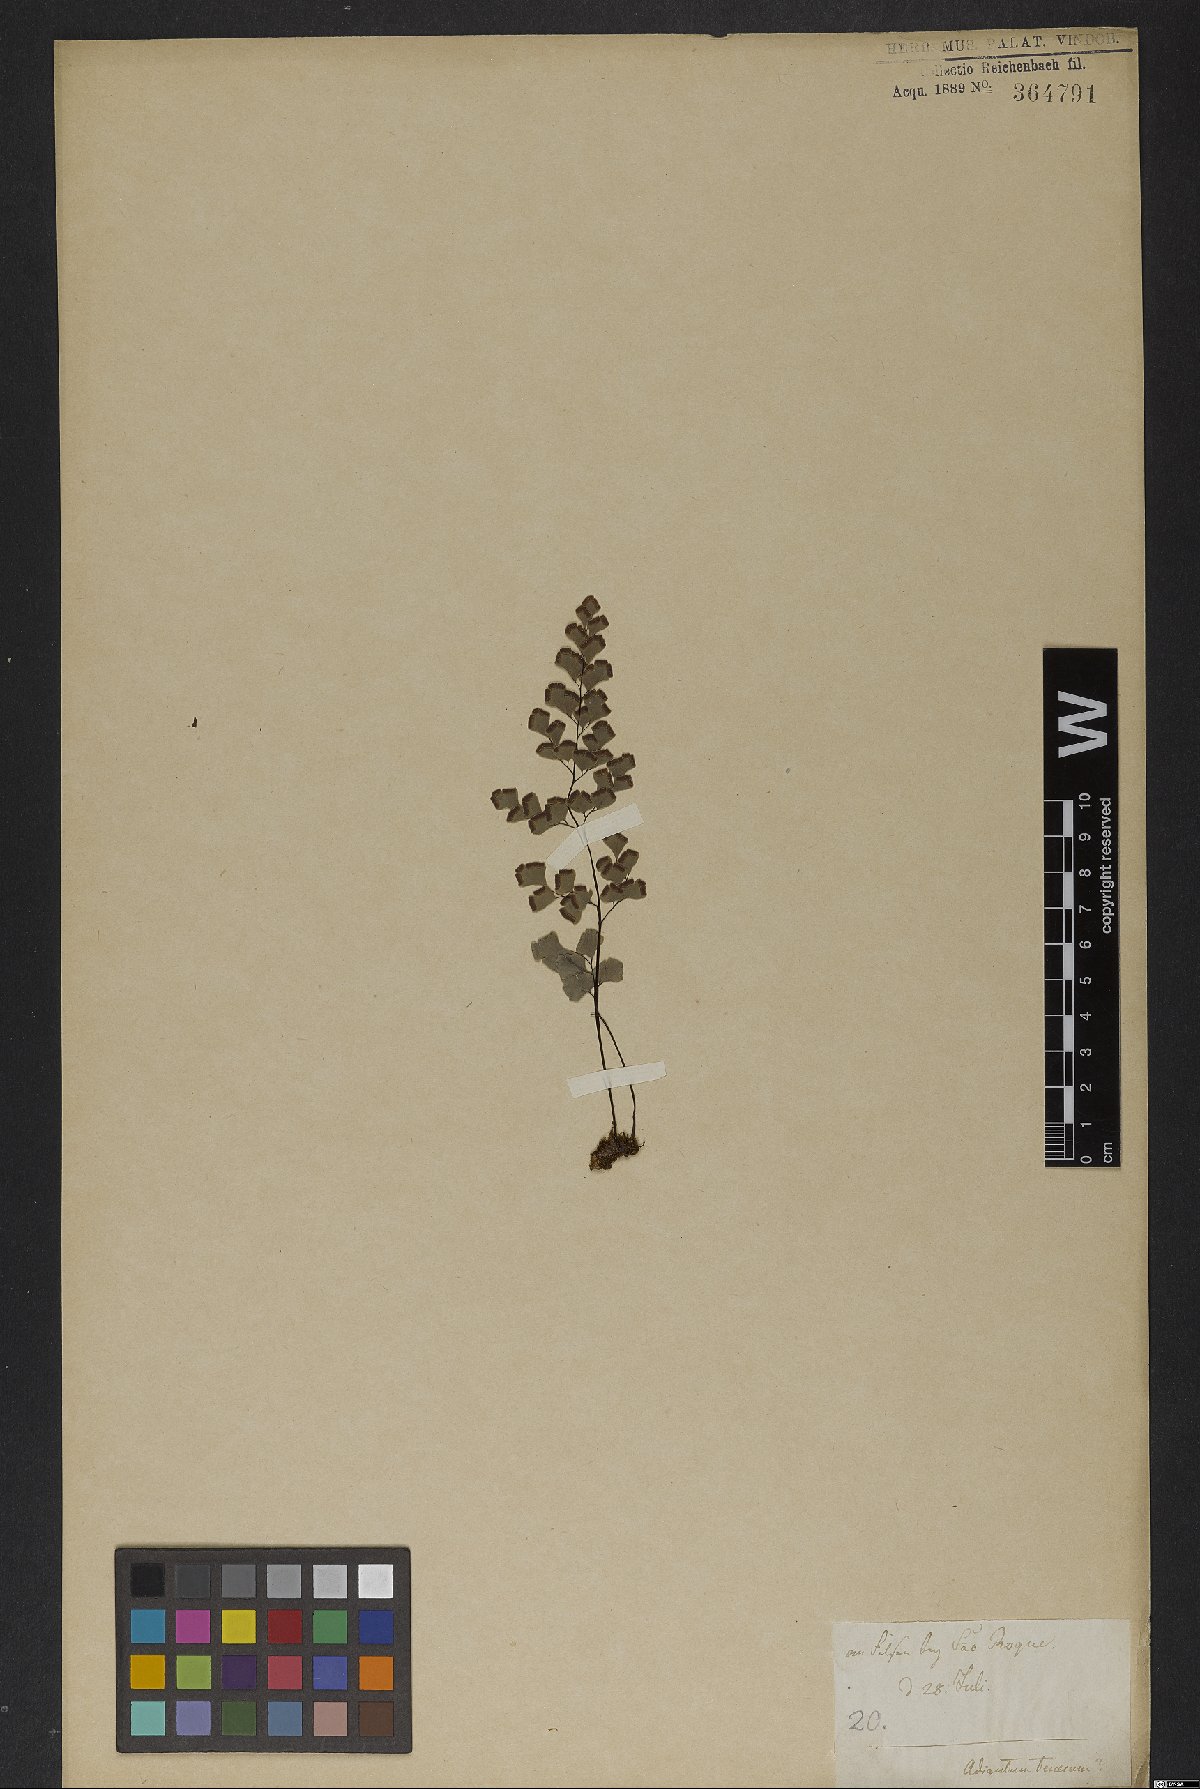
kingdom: Plantae
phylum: Tracheophyta
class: Polypodiopsida
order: Polypodiales
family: Pteridaceae
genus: Adiantum
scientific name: Adiantum tenerum
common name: Fan maidenhair
